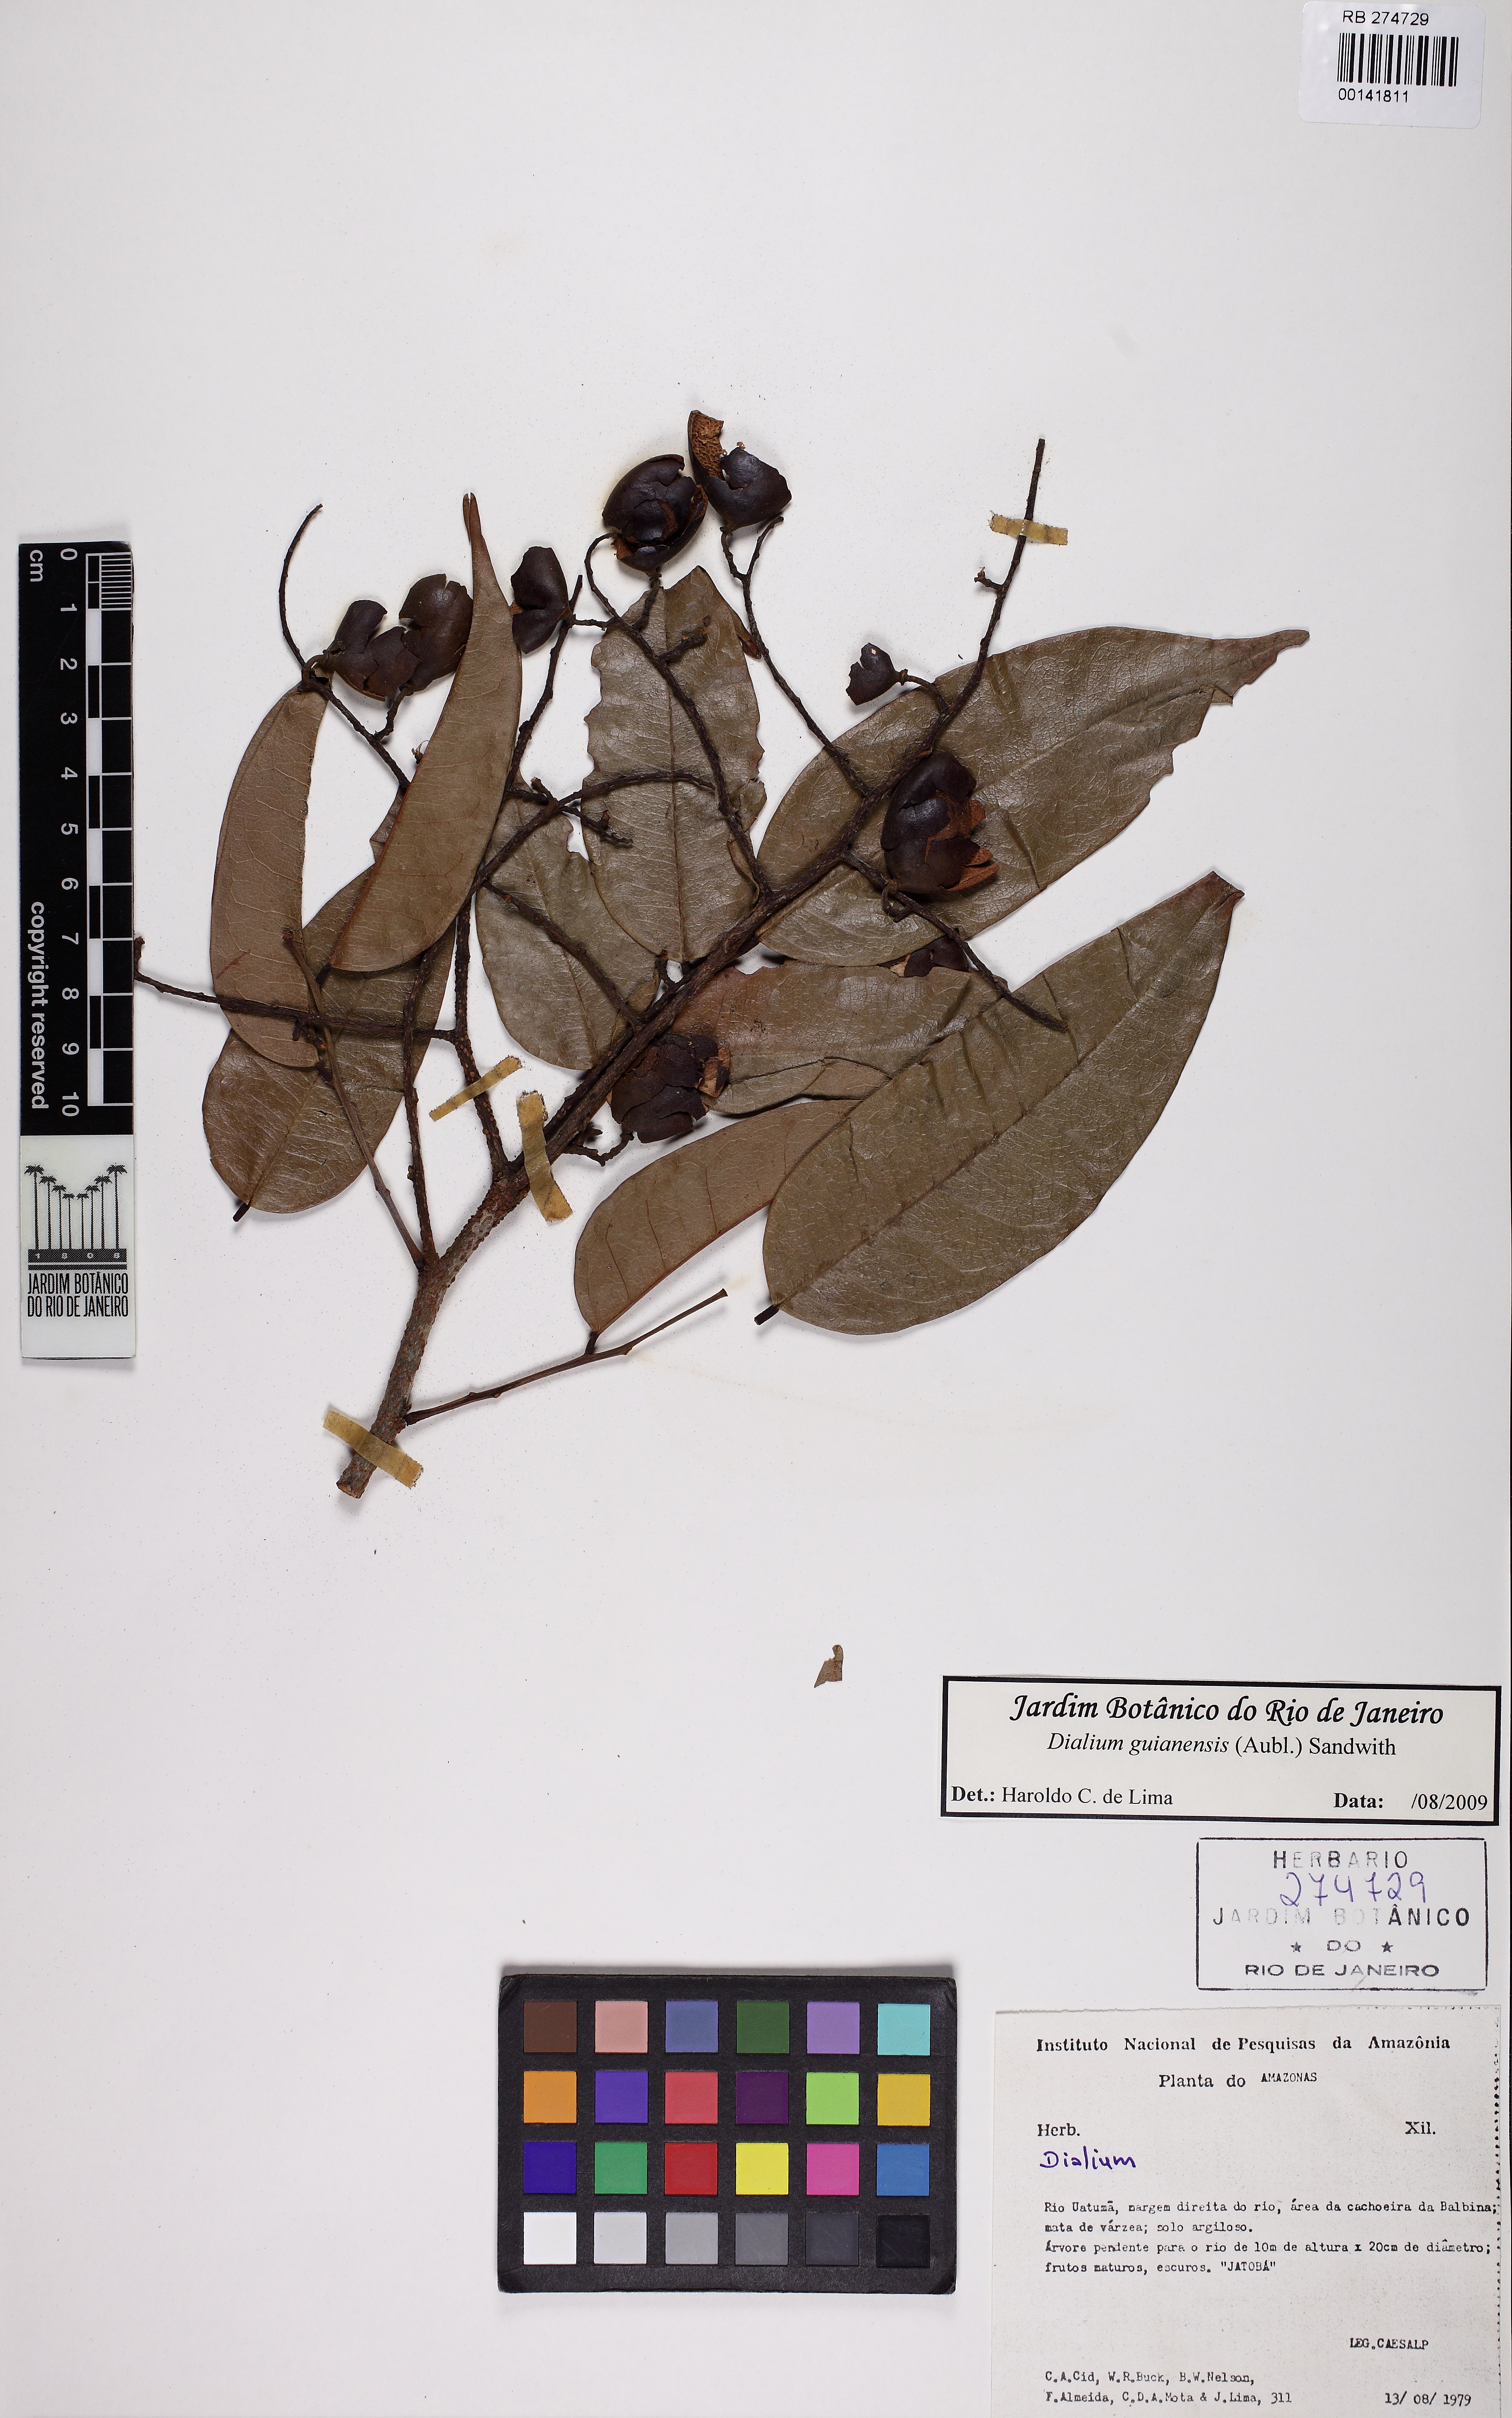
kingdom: Plantae
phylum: Tracheophyta
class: Magnoliopsida
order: Fabales
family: Fabaceae
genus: Dialium
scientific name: Dialium guianense
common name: Ironwood
